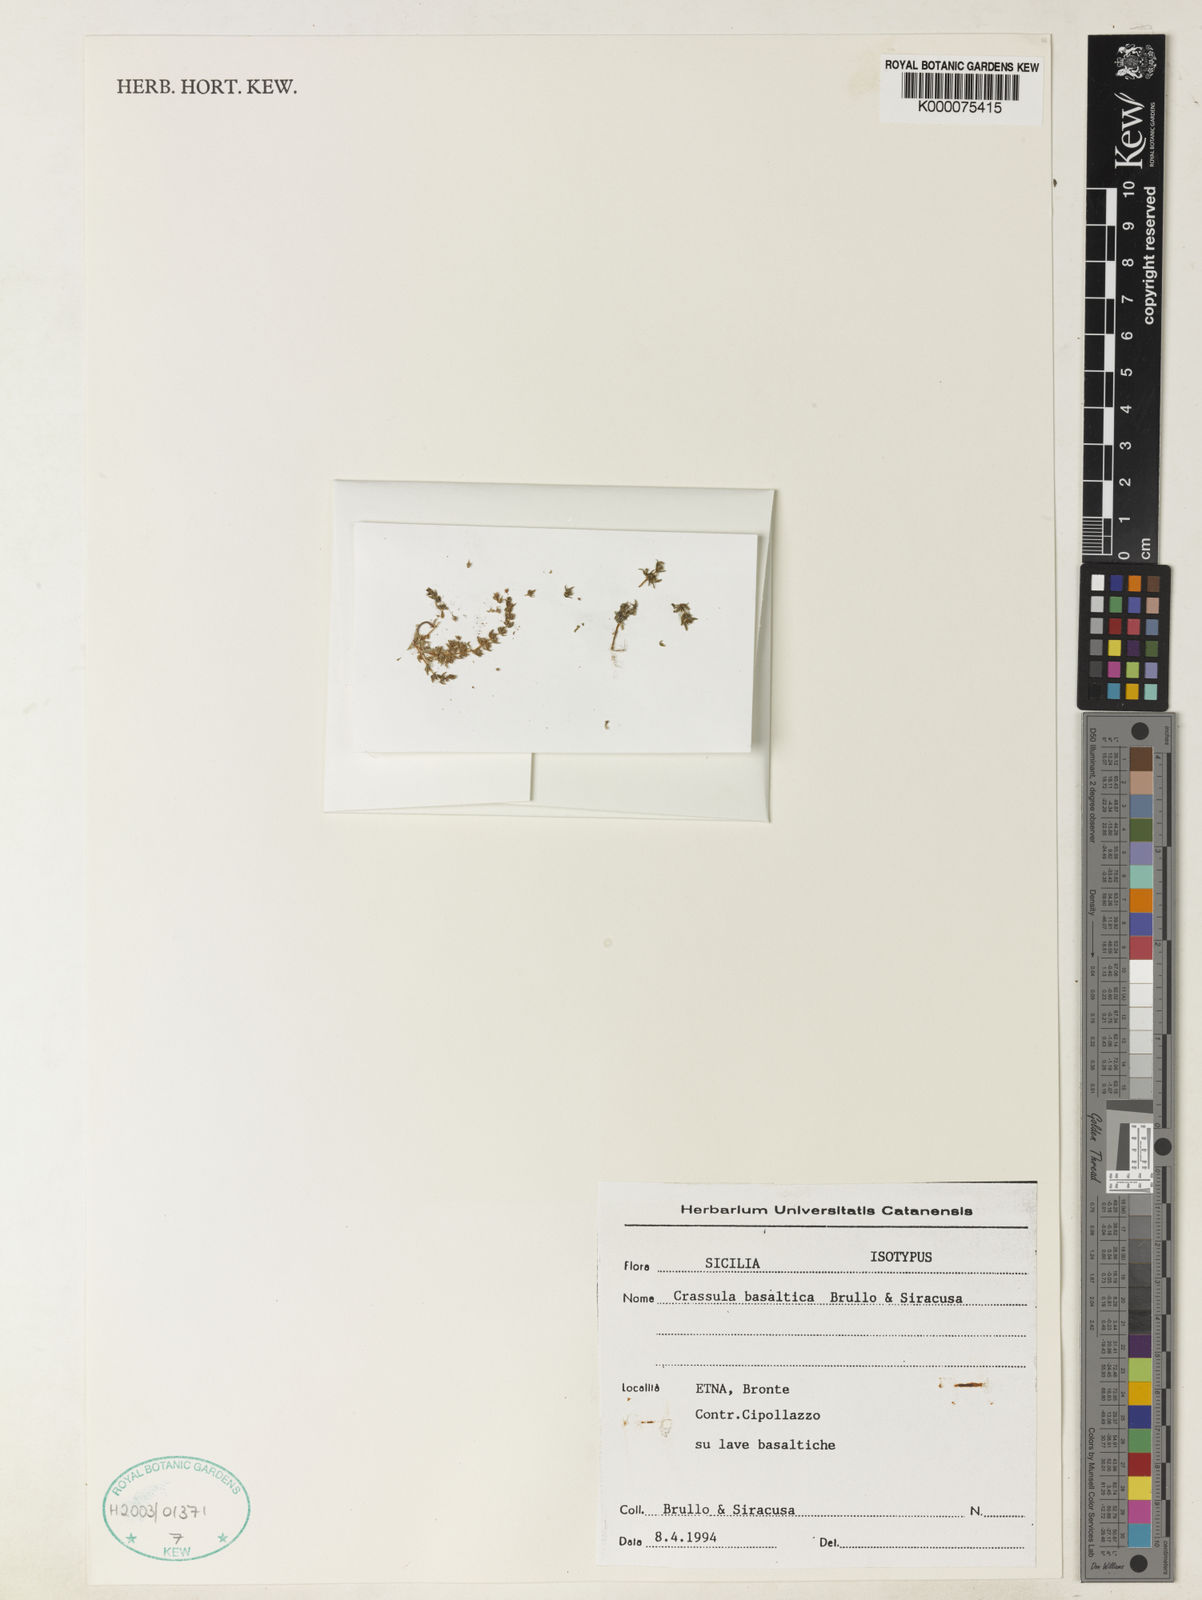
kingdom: Plantae
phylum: Tracheophyta
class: Magnoliopsida
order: Saxifragales
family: Crassulaceae
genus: Crassula
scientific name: Crassula basaltica
